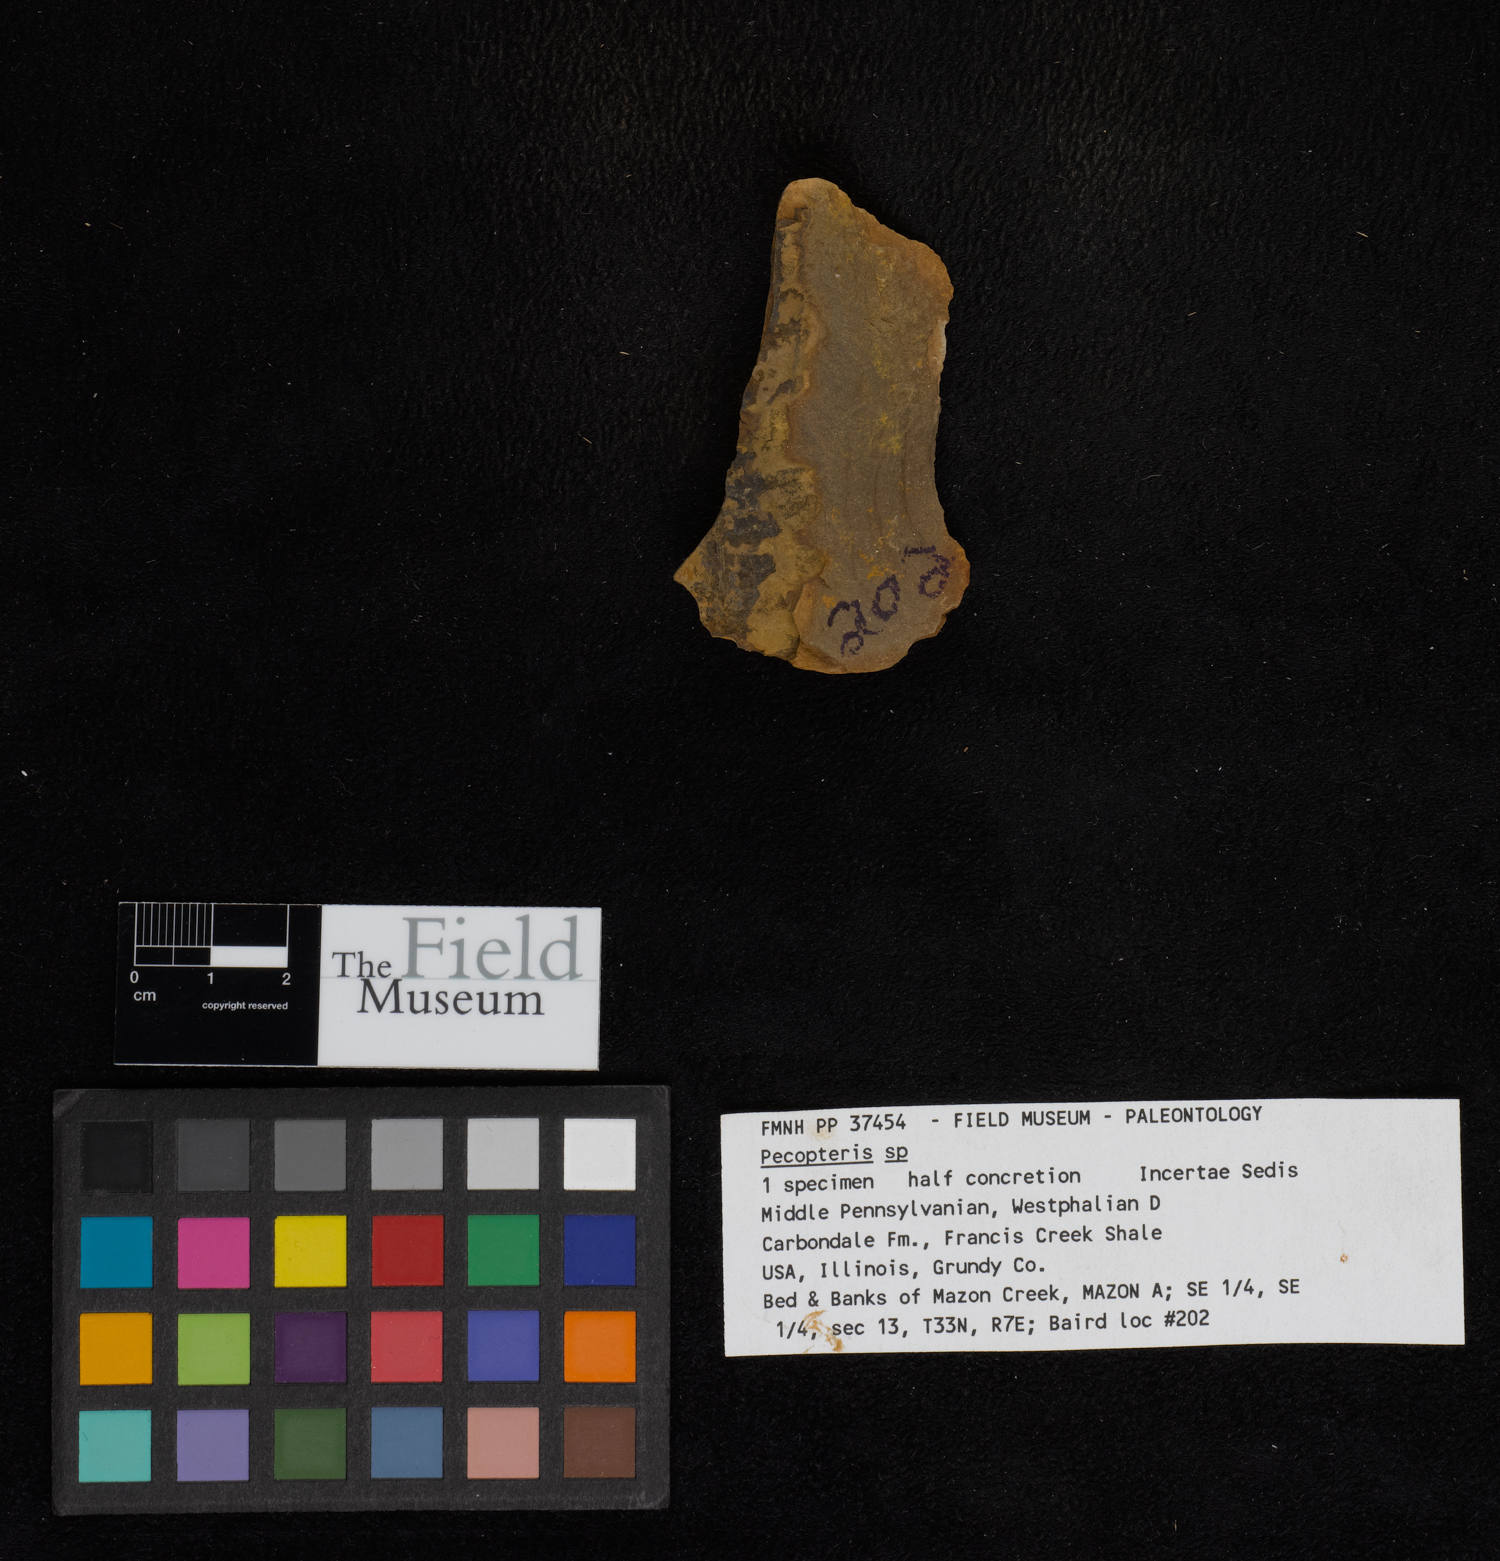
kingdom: Plantae
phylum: Tracheophyta
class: Polypodiopsida
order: Marattiales
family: Asterothecaceae
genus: Pecopteris
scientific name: Pecopteris
